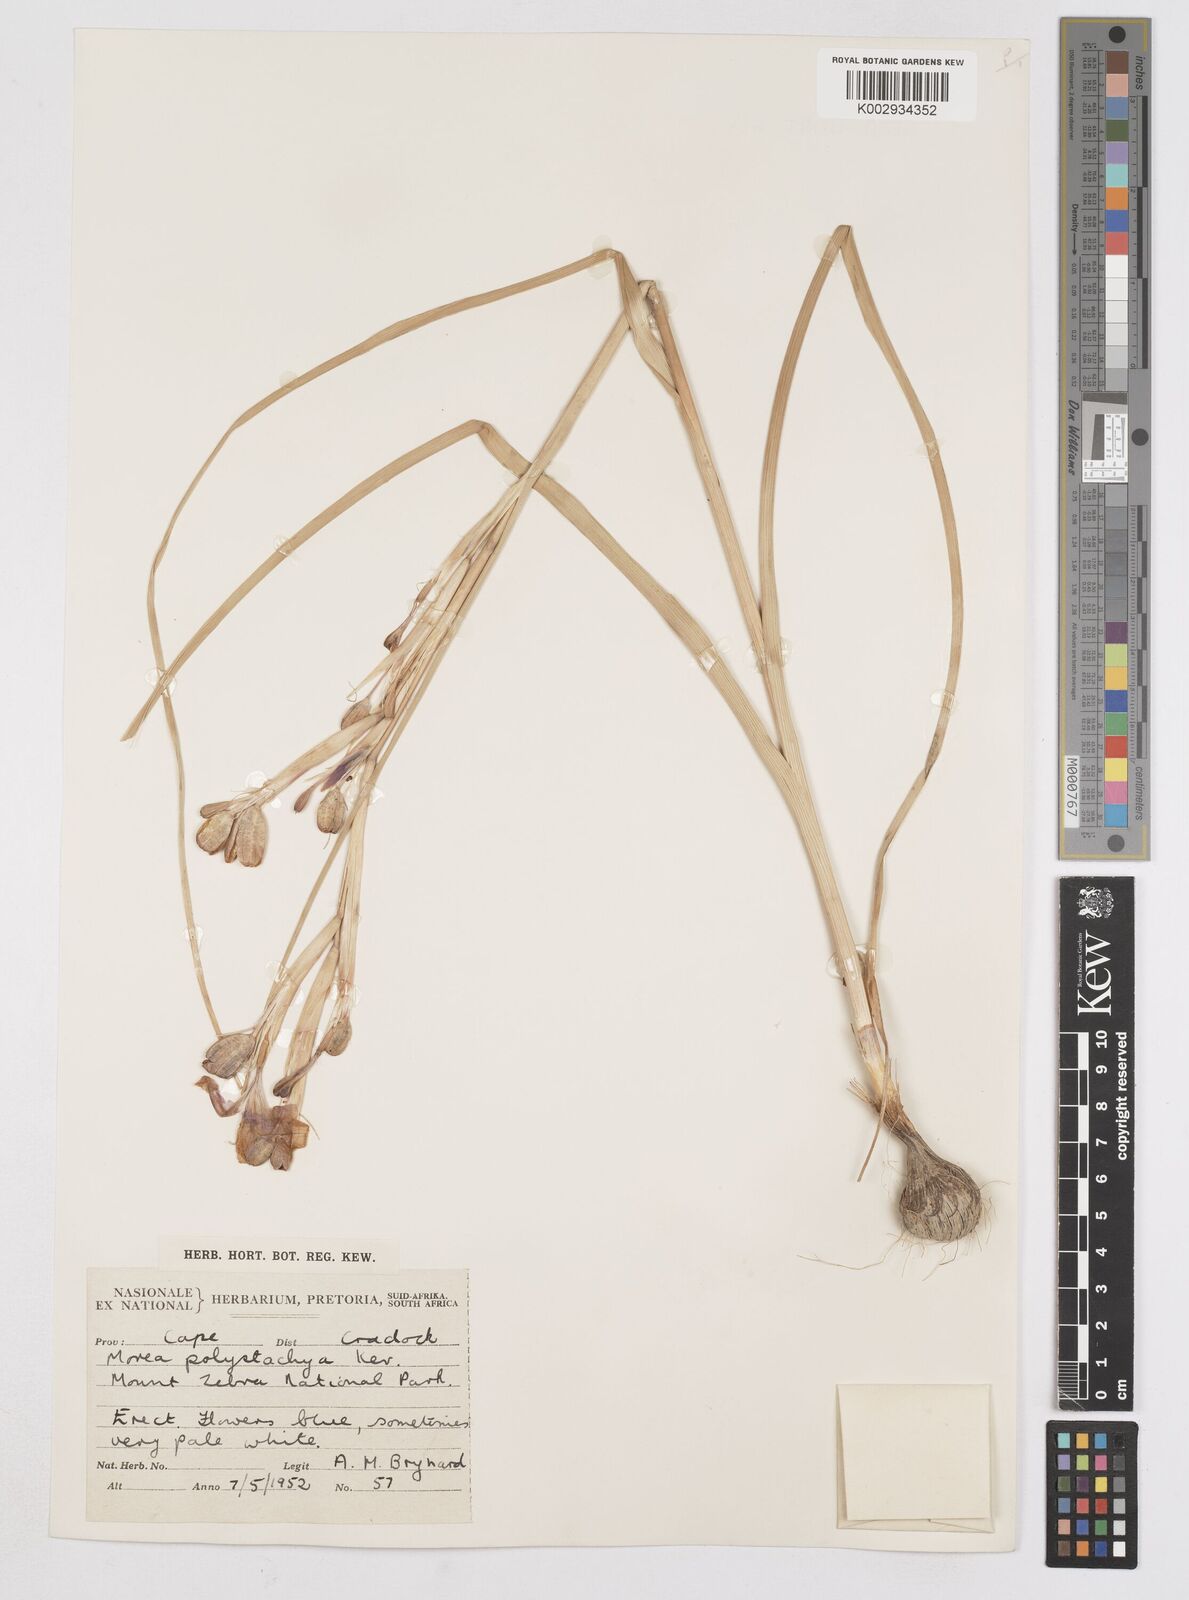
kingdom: Plantae
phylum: Tracheophyta
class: Liliopsida
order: Asparagales
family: Iridaceae
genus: Moraea
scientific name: Moraea polystachya
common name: Blue-tulip
